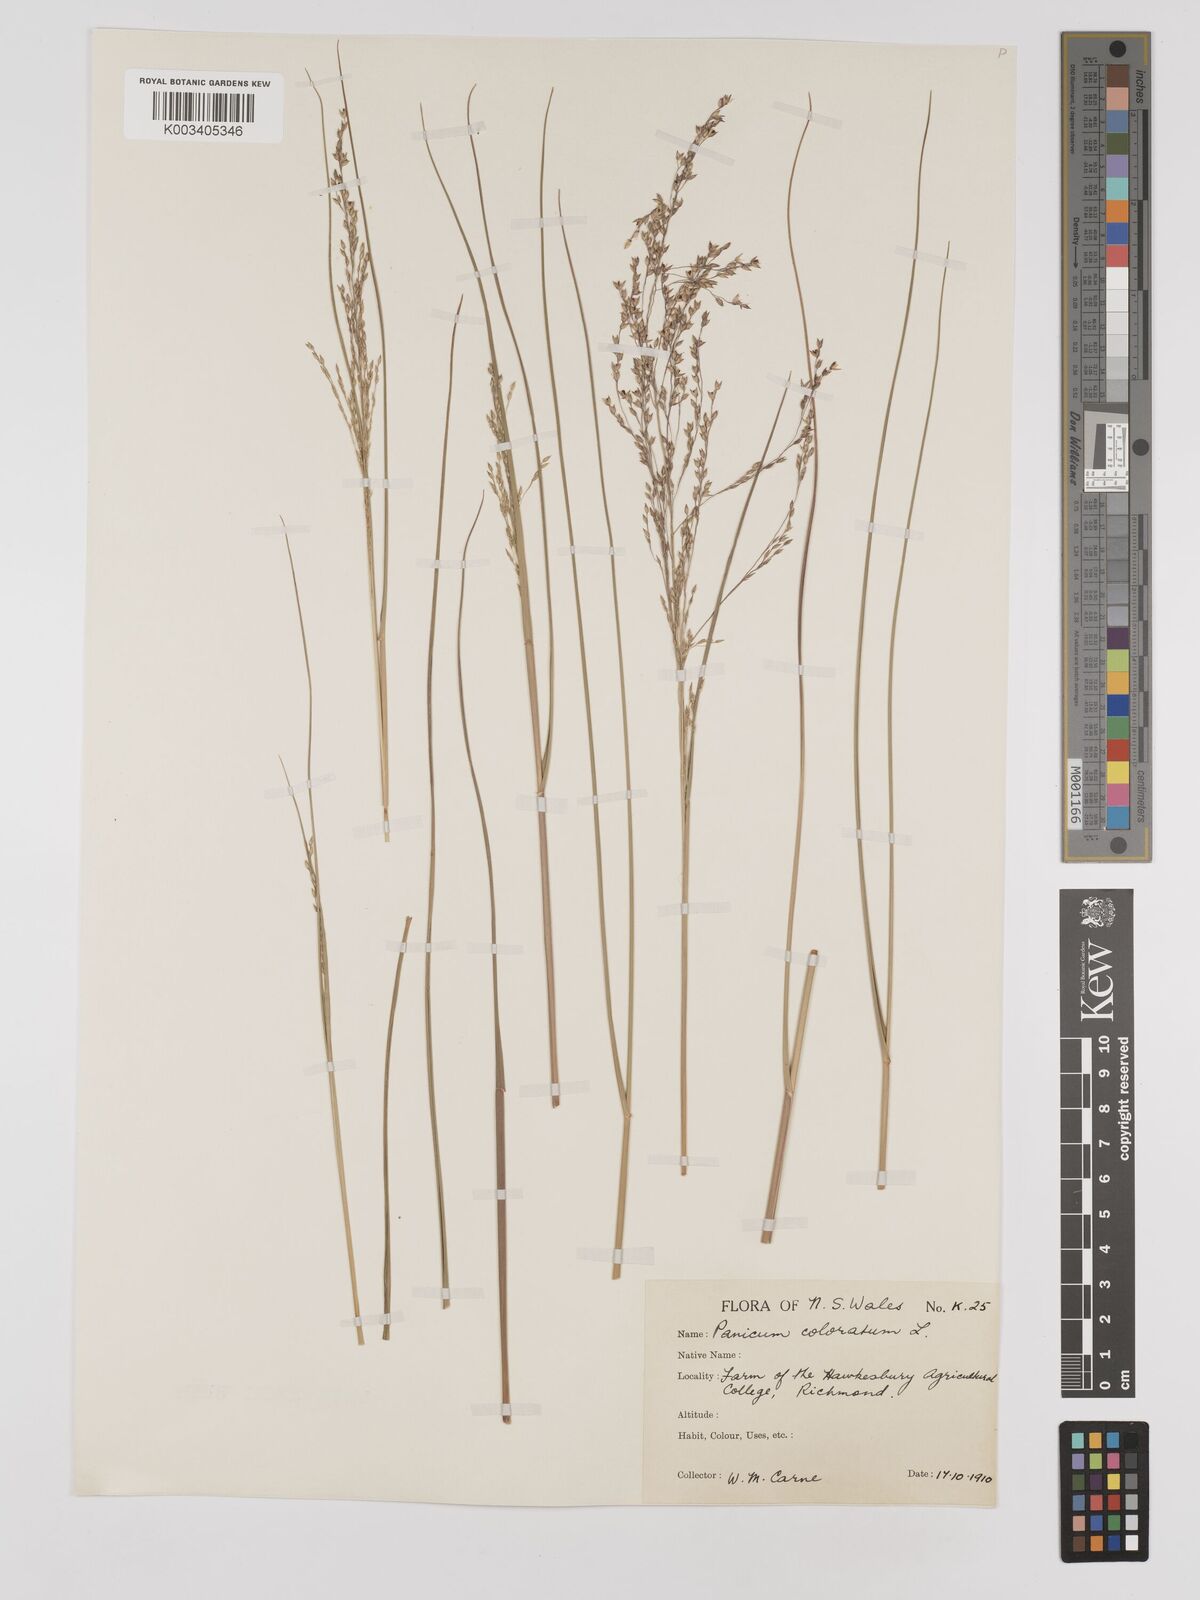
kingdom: Plantae
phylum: Tracheophyta
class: Liliopsida
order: Poales
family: Poaceae
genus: Panicum
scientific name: Panicum coloratum
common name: Kleingrass
